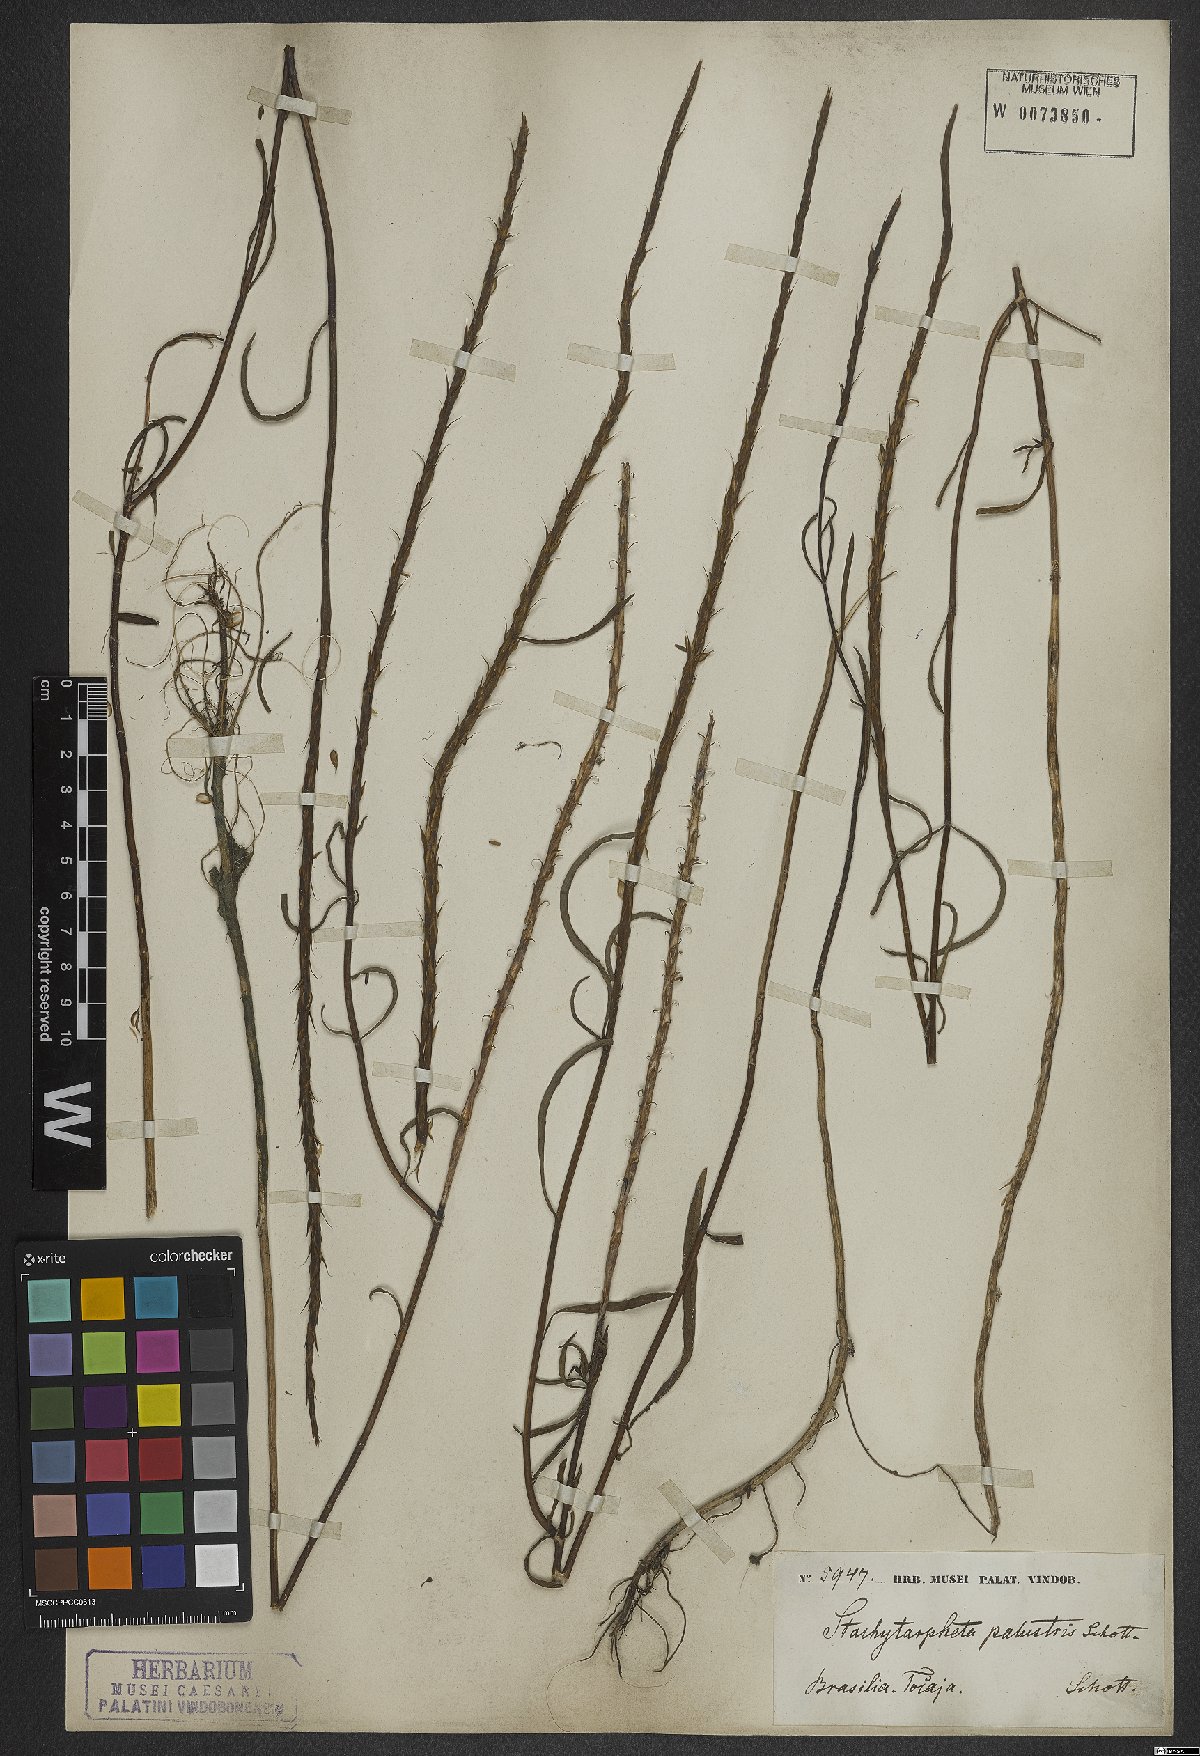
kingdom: Plantae
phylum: Tracheophyta
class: Magnoliopsida
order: Lamiales
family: Verbenaceae
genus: Stachytarpheta
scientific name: Stachytarpheta indica
